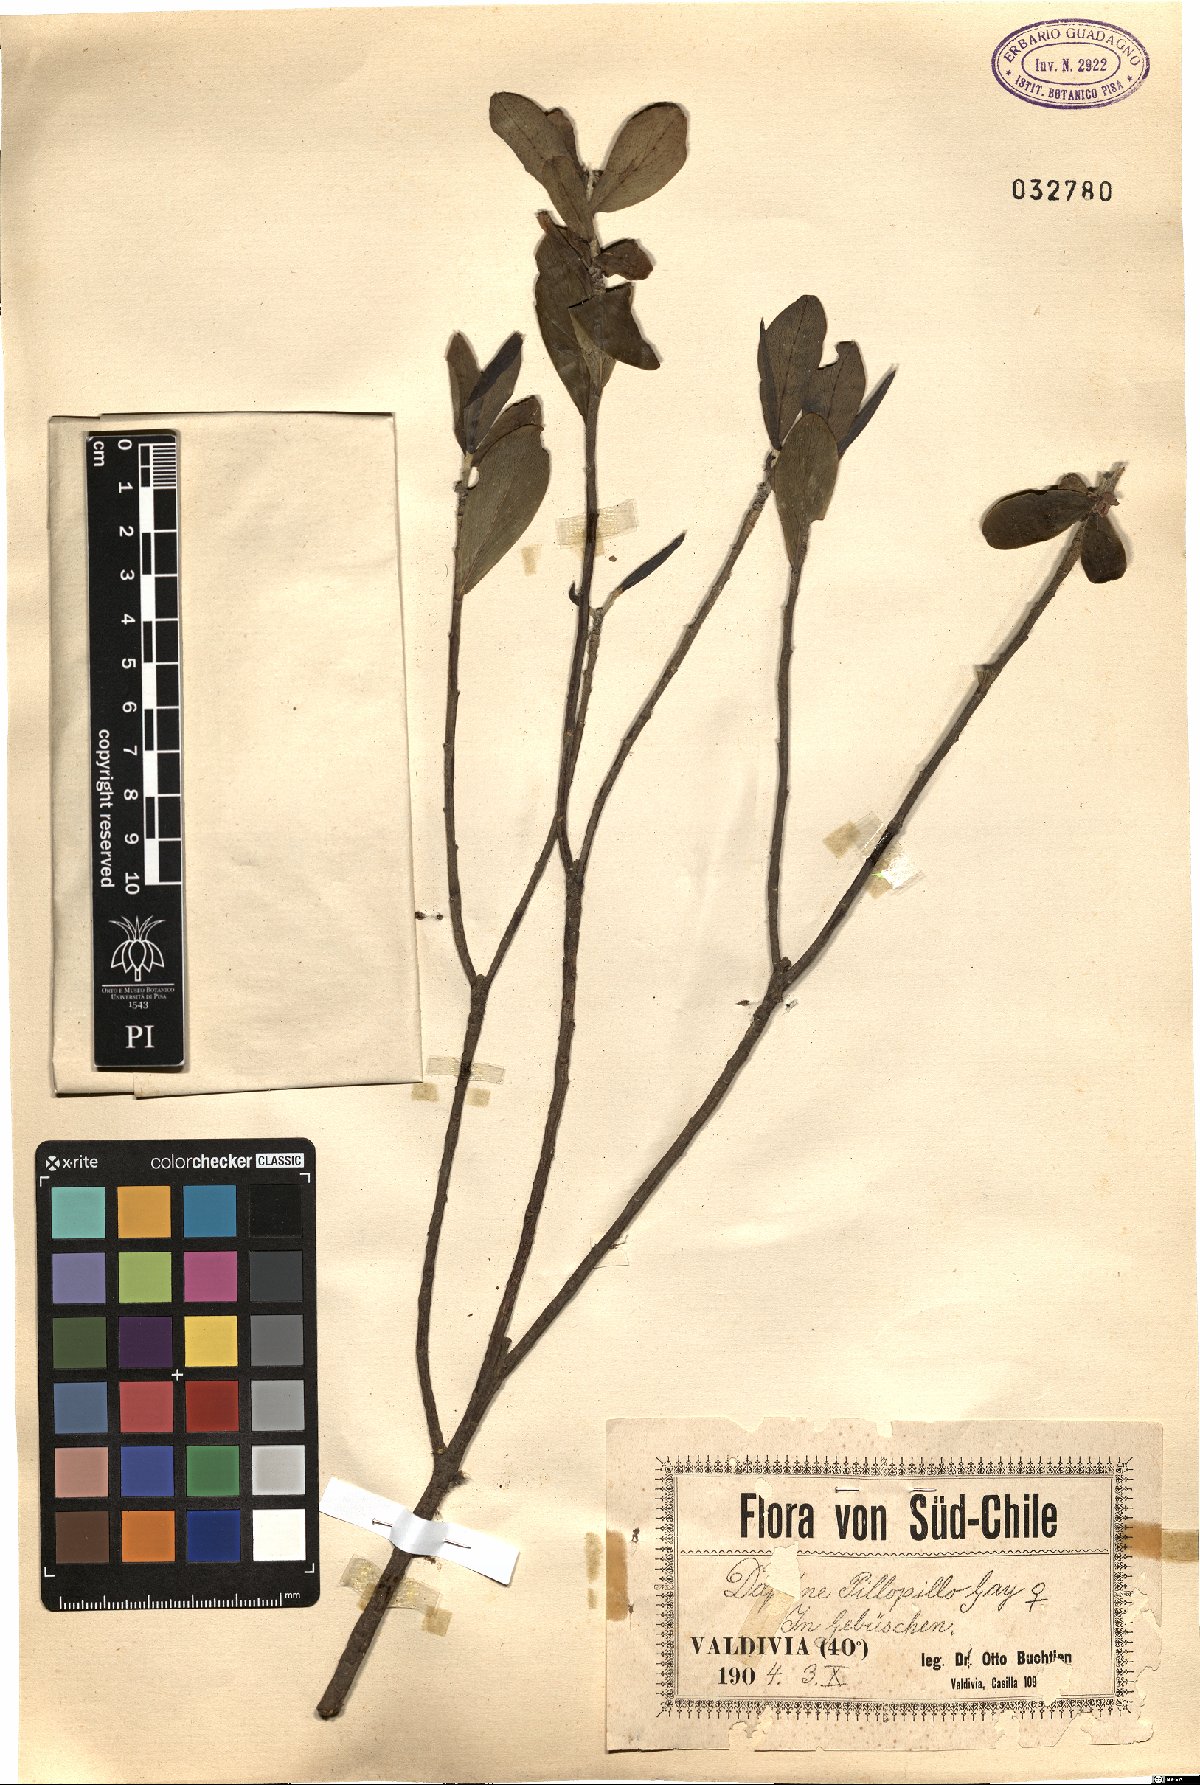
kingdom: Plantae
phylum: Tracheophyta
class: Magnoliopsida
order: Malvales
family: Thymelaeaceae
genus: Ovidia
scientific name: Ovidia pillo-pillo
